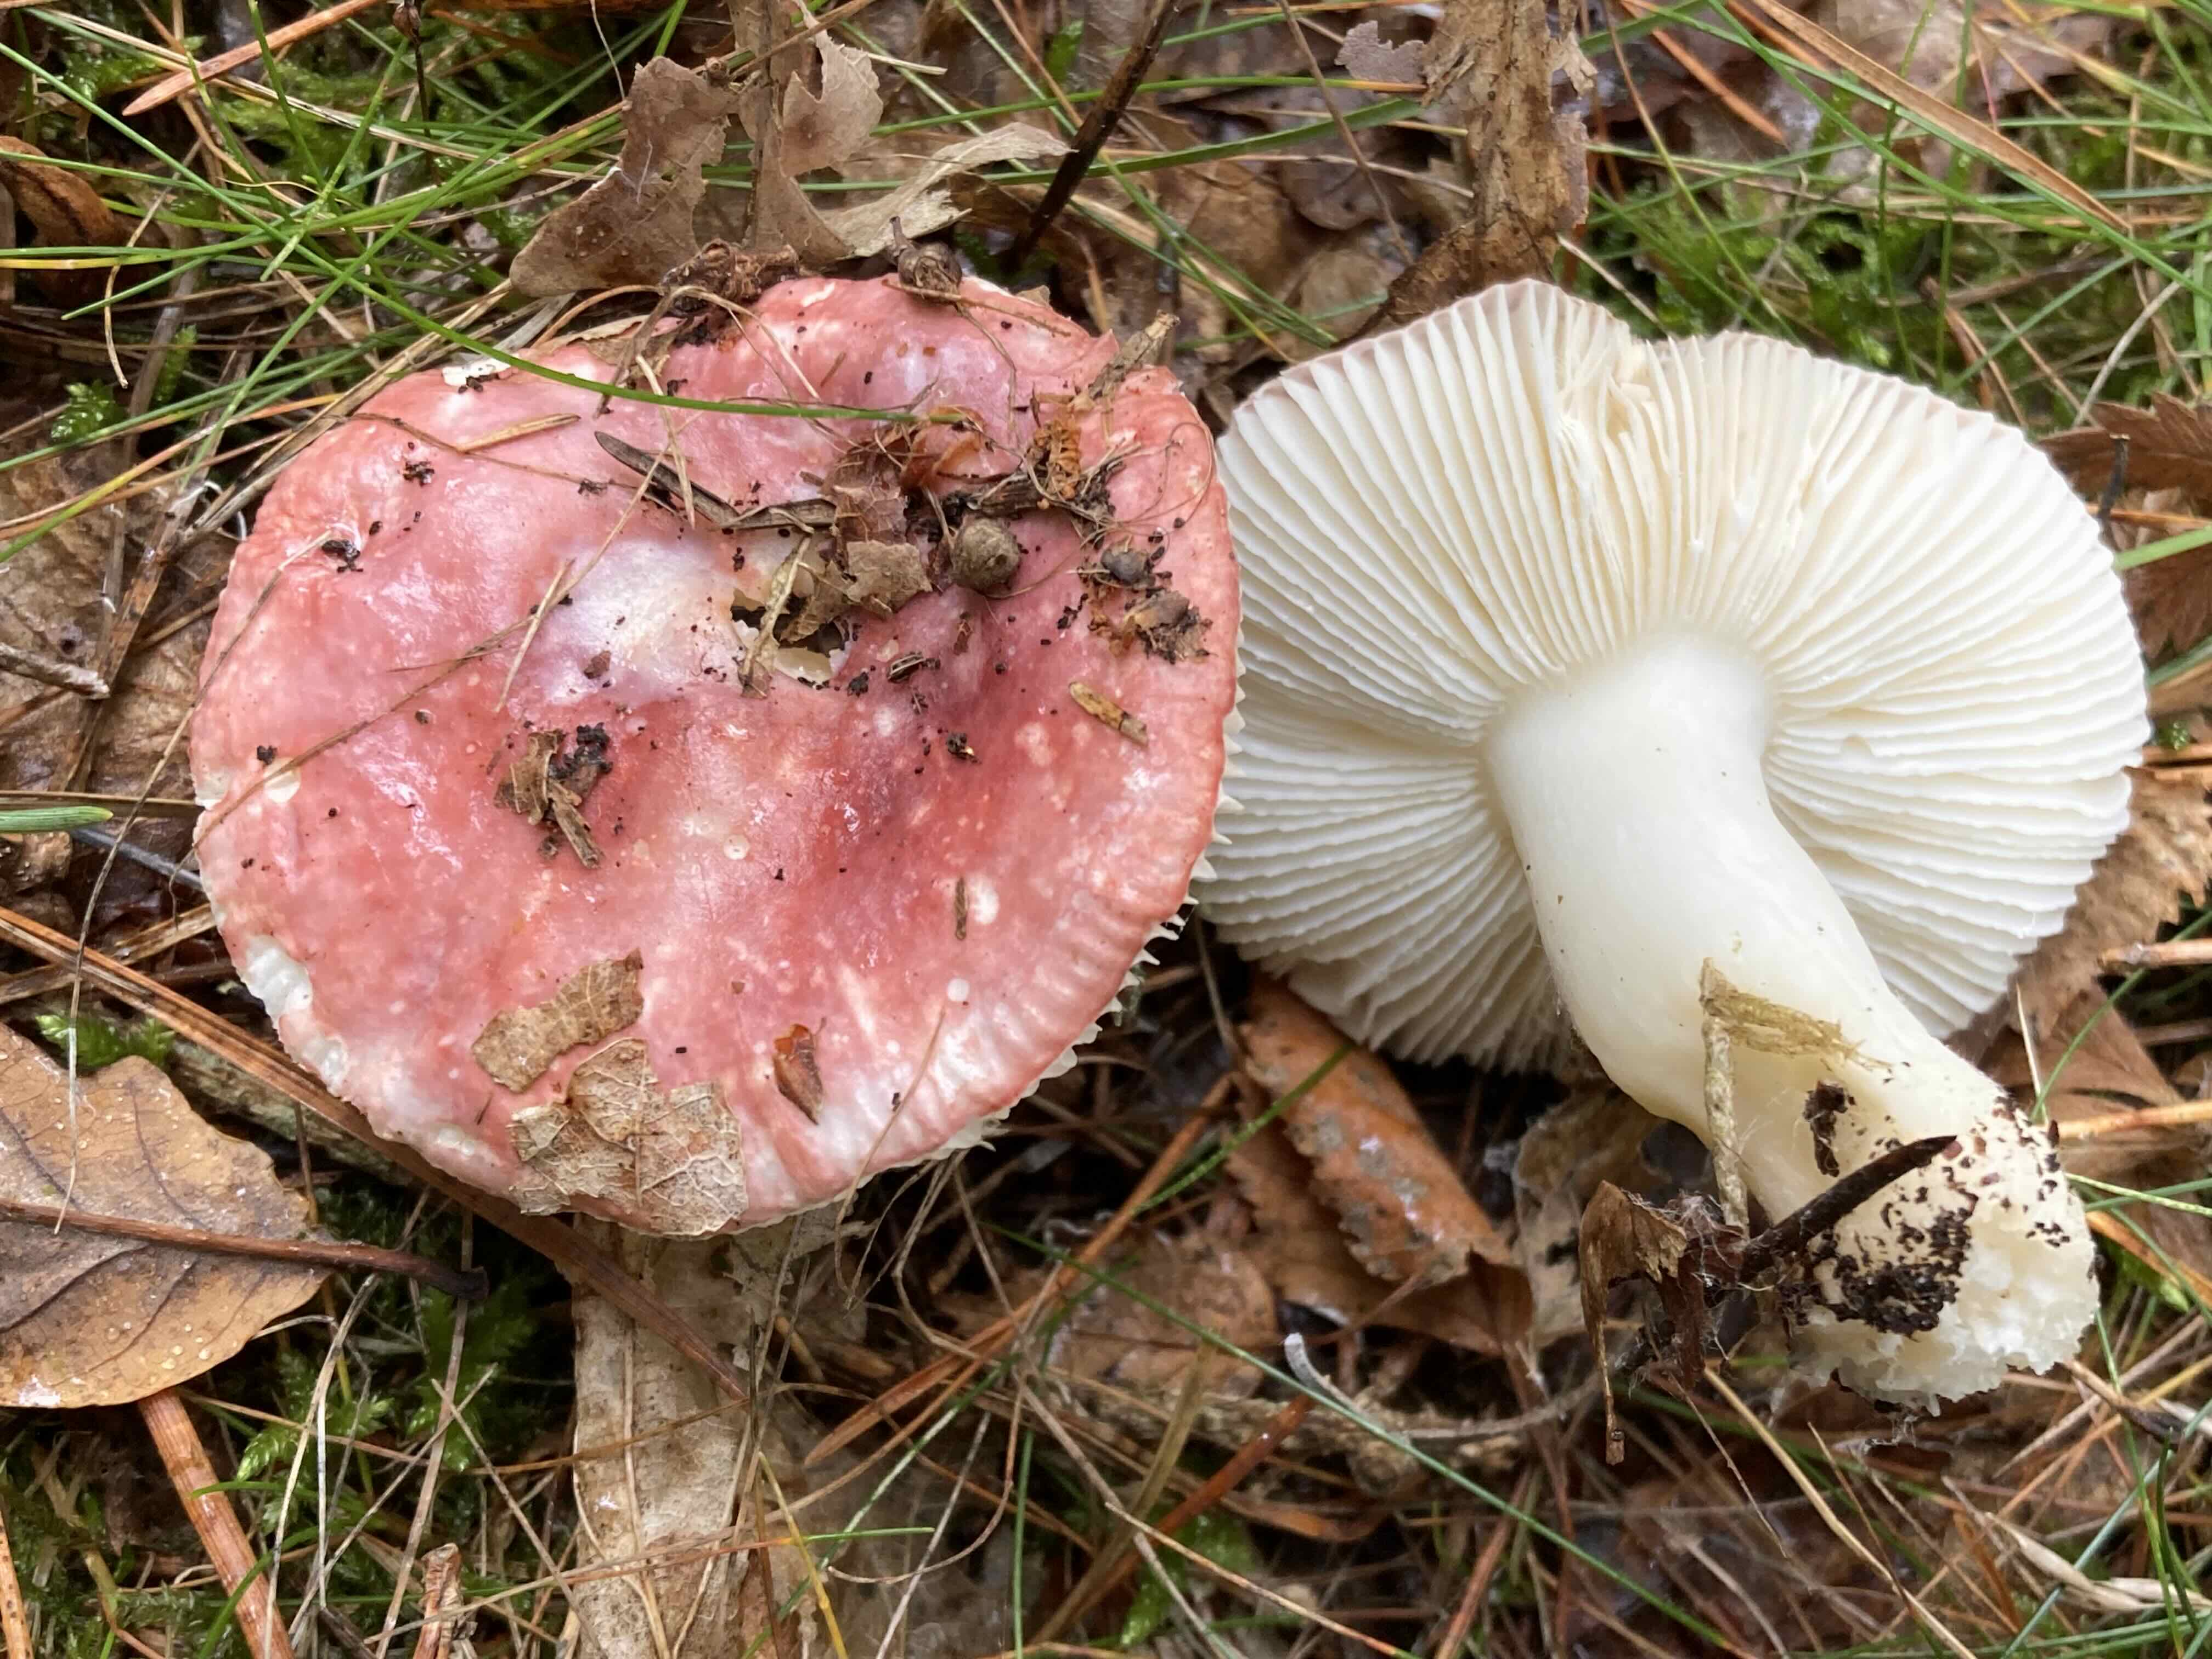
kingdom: Fungi
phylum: Basidiomycota
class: Agaricomycetes
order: Russulales
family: Russulaceae
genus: Russula
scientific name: Russula
